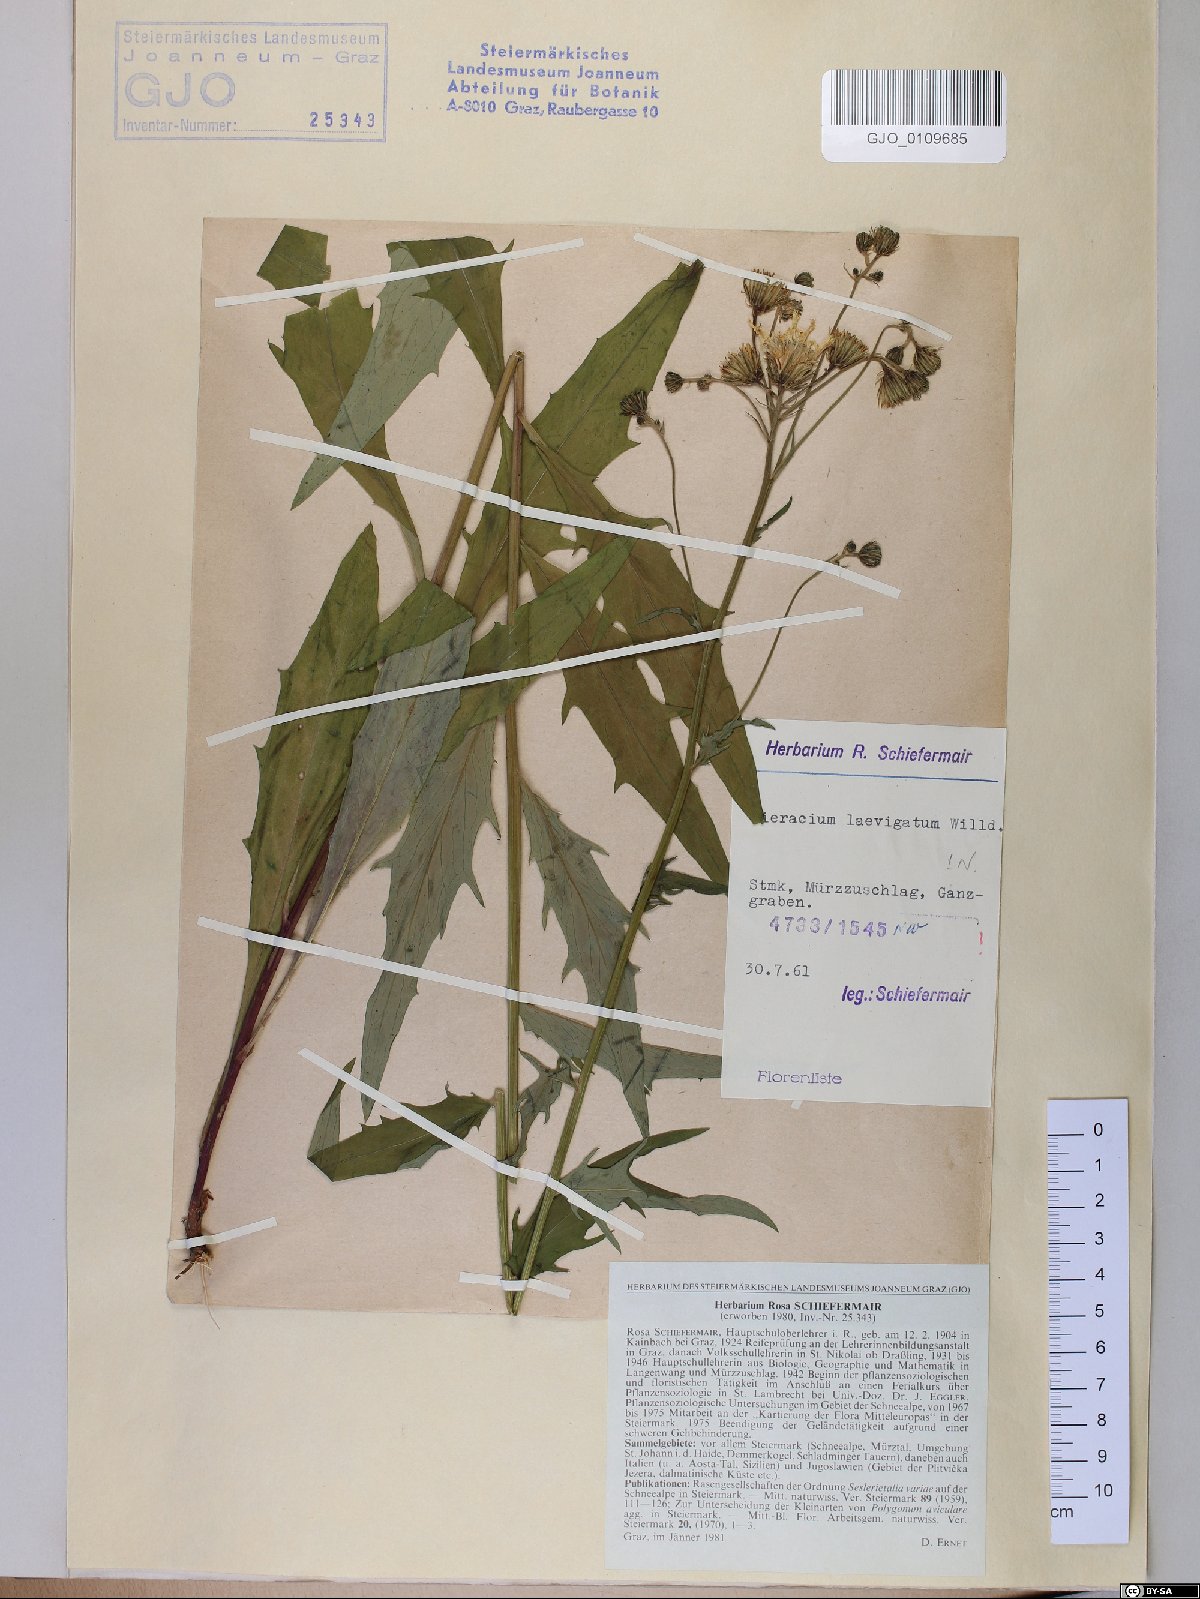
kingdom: Plantae
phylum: Tracheophyta
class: Magnoliopsida
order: Asterales
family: Asteraceae
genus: Hieracium
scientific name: Hieracium laevigatum
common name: Smooth hawkweed
